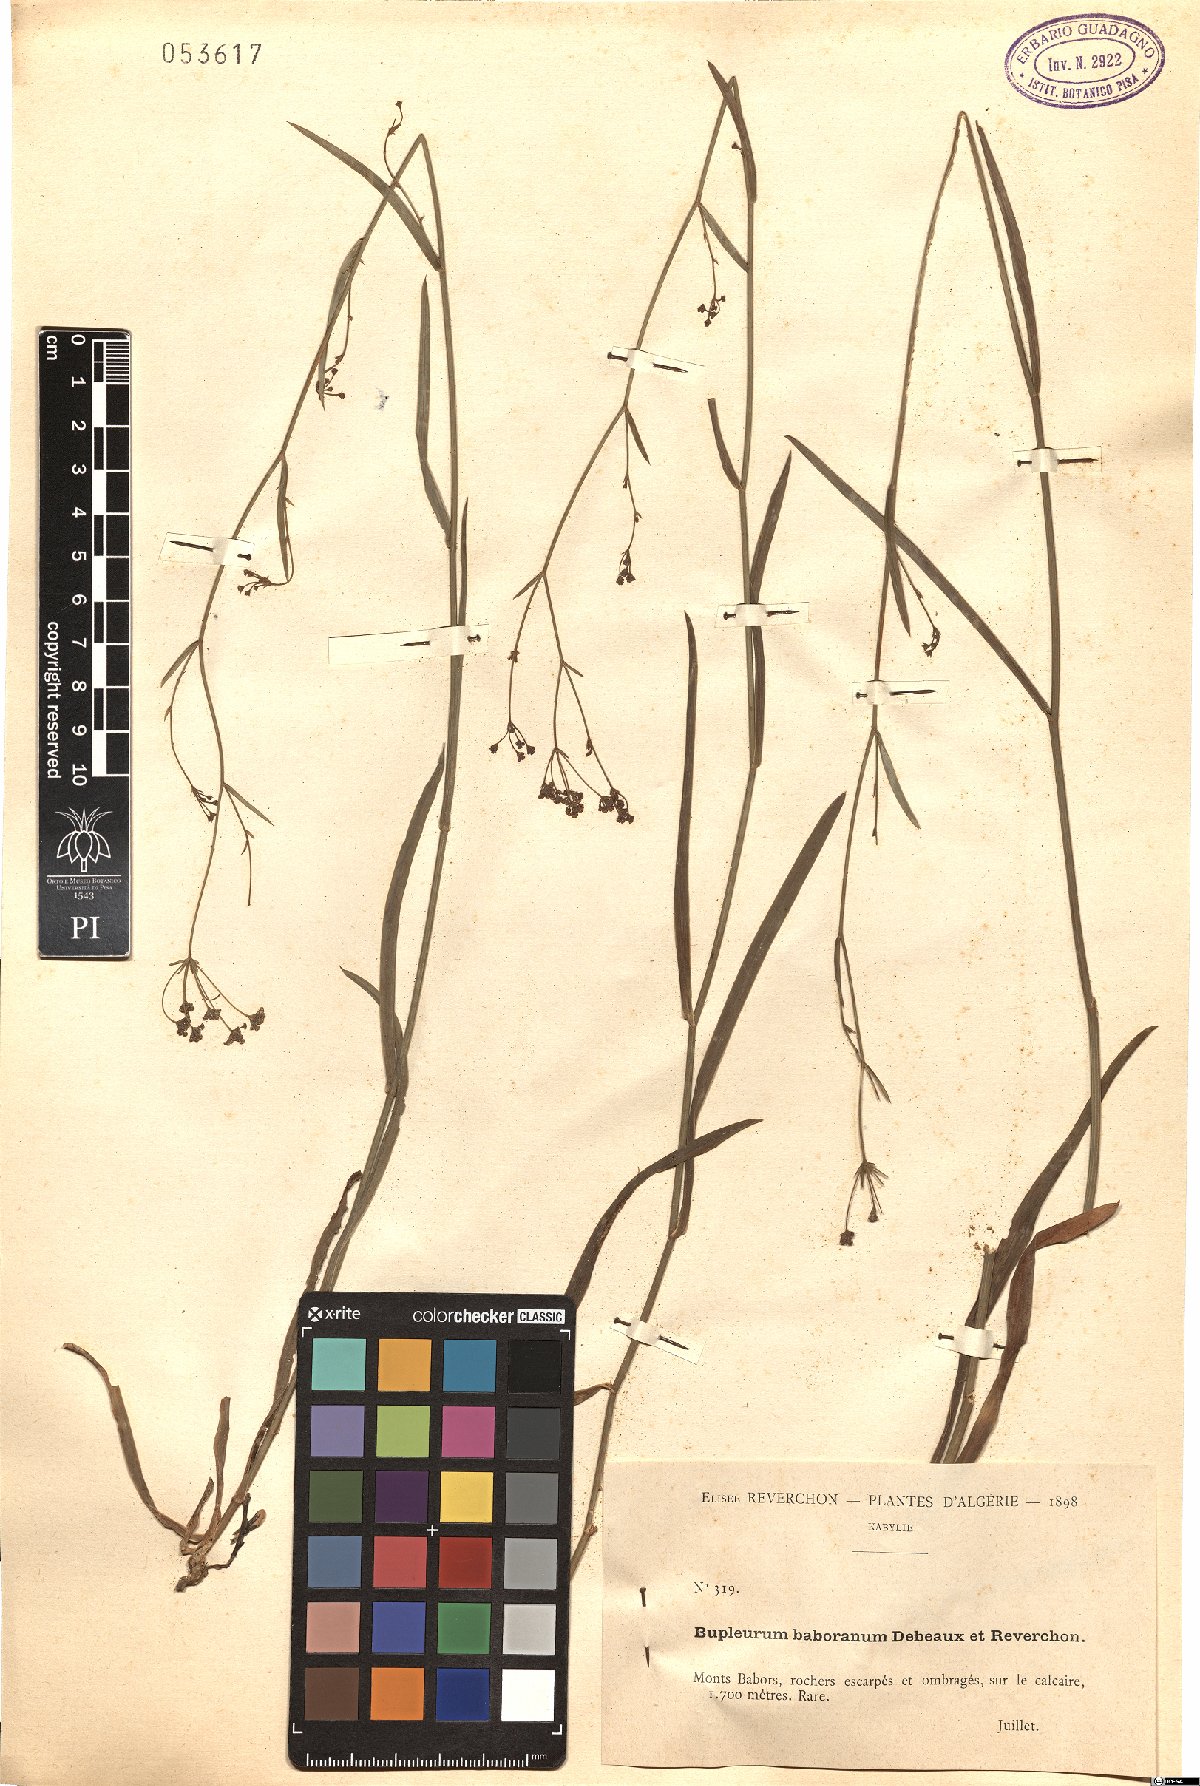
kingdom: Plantae
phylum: Tracheophyta
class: Magnoliopsida
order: Apiales
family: Apiaceae
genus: Bupleurum
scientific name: Bupleurum montanum
